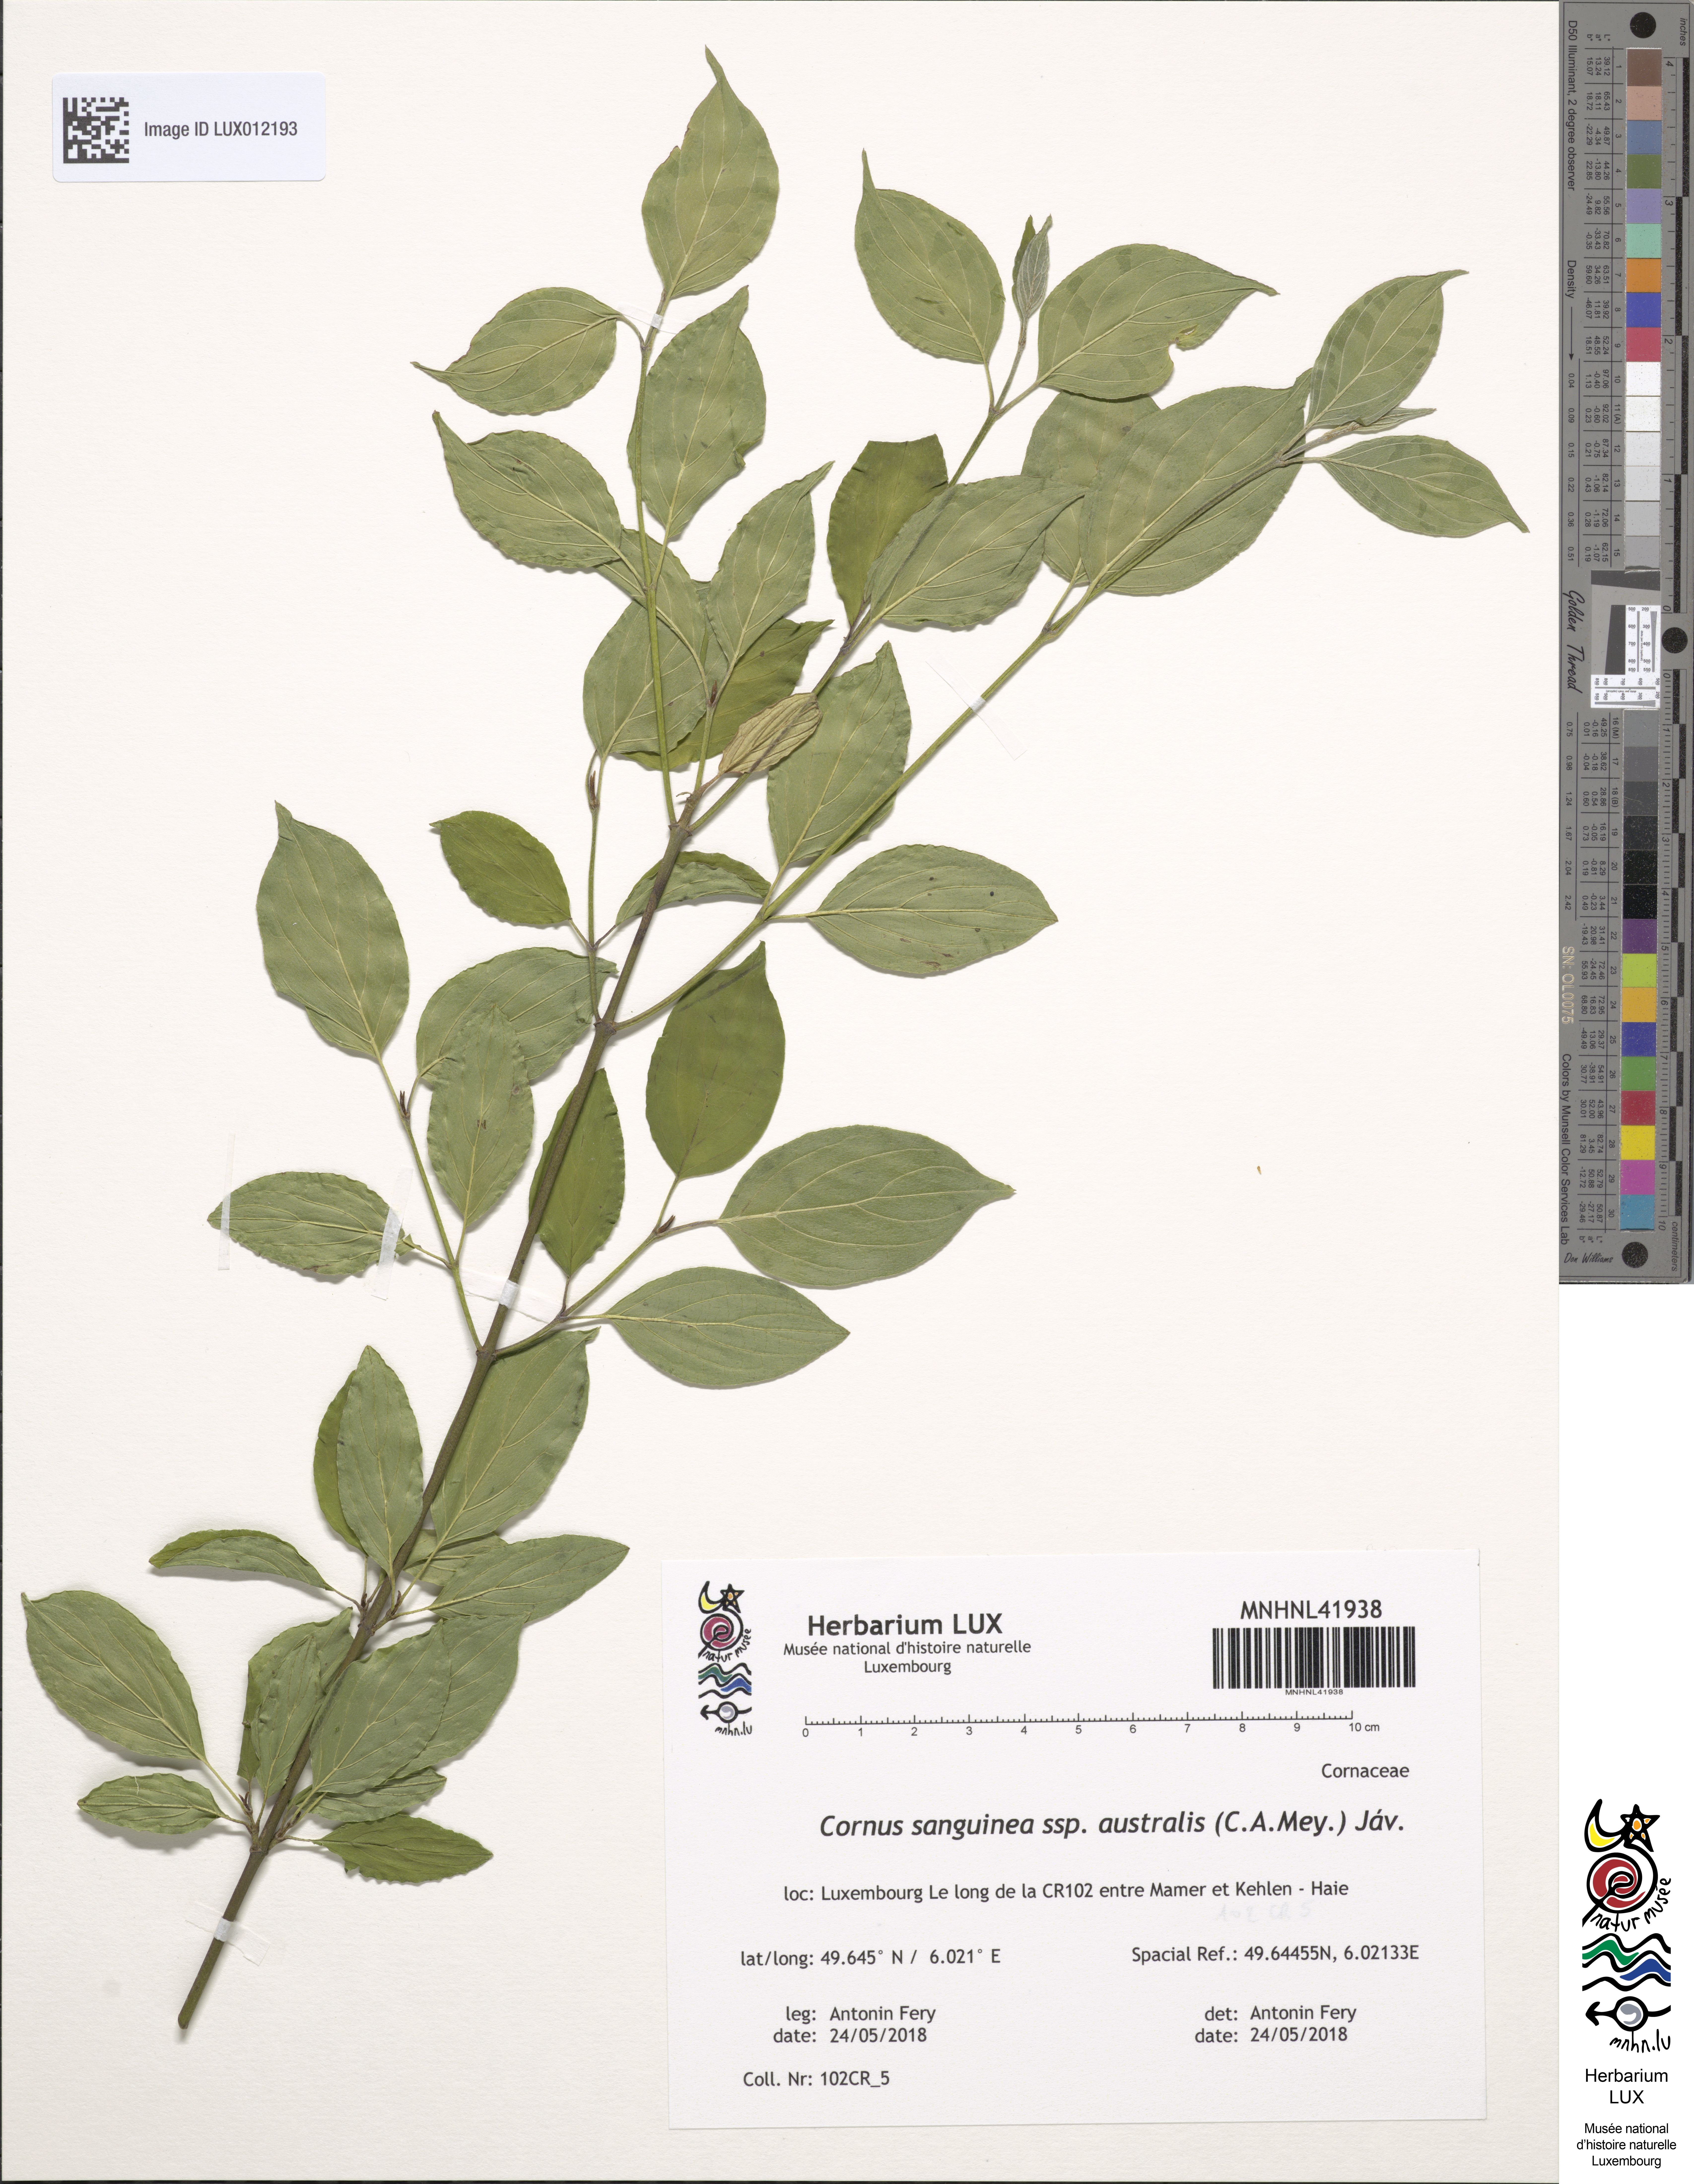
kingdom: Plantae
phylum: Tracheophyta
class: Magnoliopsida
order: Cornales
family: Cornaceae
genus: Cornus
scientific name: Cornus sanguinea
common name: Dogwood
